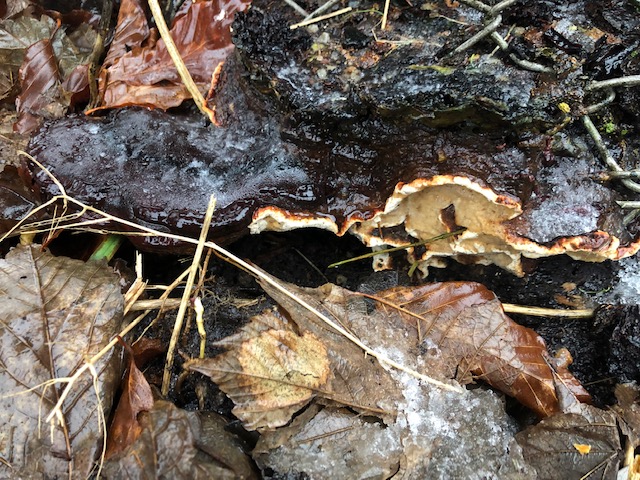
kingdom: Fungi
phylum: Basidiomycota
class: Agaricomycetes
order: Russulales
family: Bondarzewiaceae
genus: Heterobasidion
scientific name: Heterobasidion annosum
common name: almindelig rodfordærver
